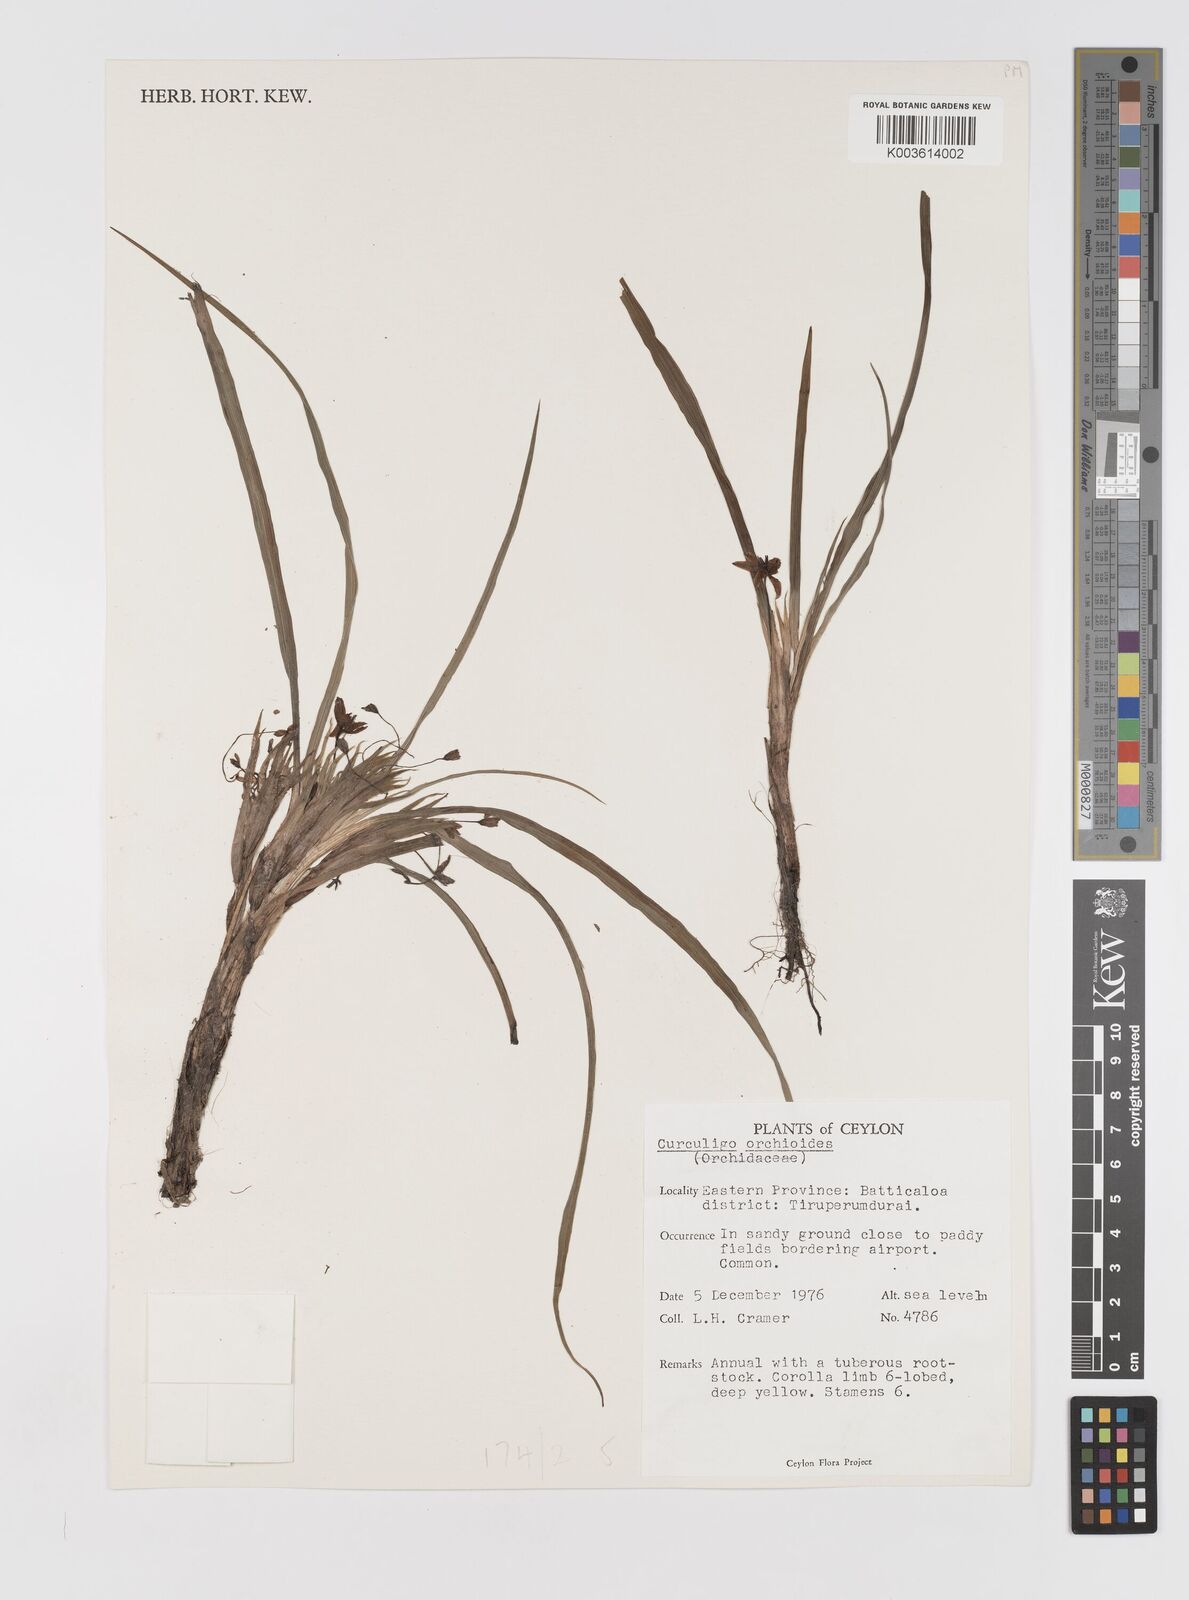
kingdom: Plantae
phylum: Tracheophyta
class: Liliopsida
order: Asparagales
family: Hypoxidaceae
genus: Curculigo
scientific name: Curculigo orchioides
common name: Golden eye-grass
